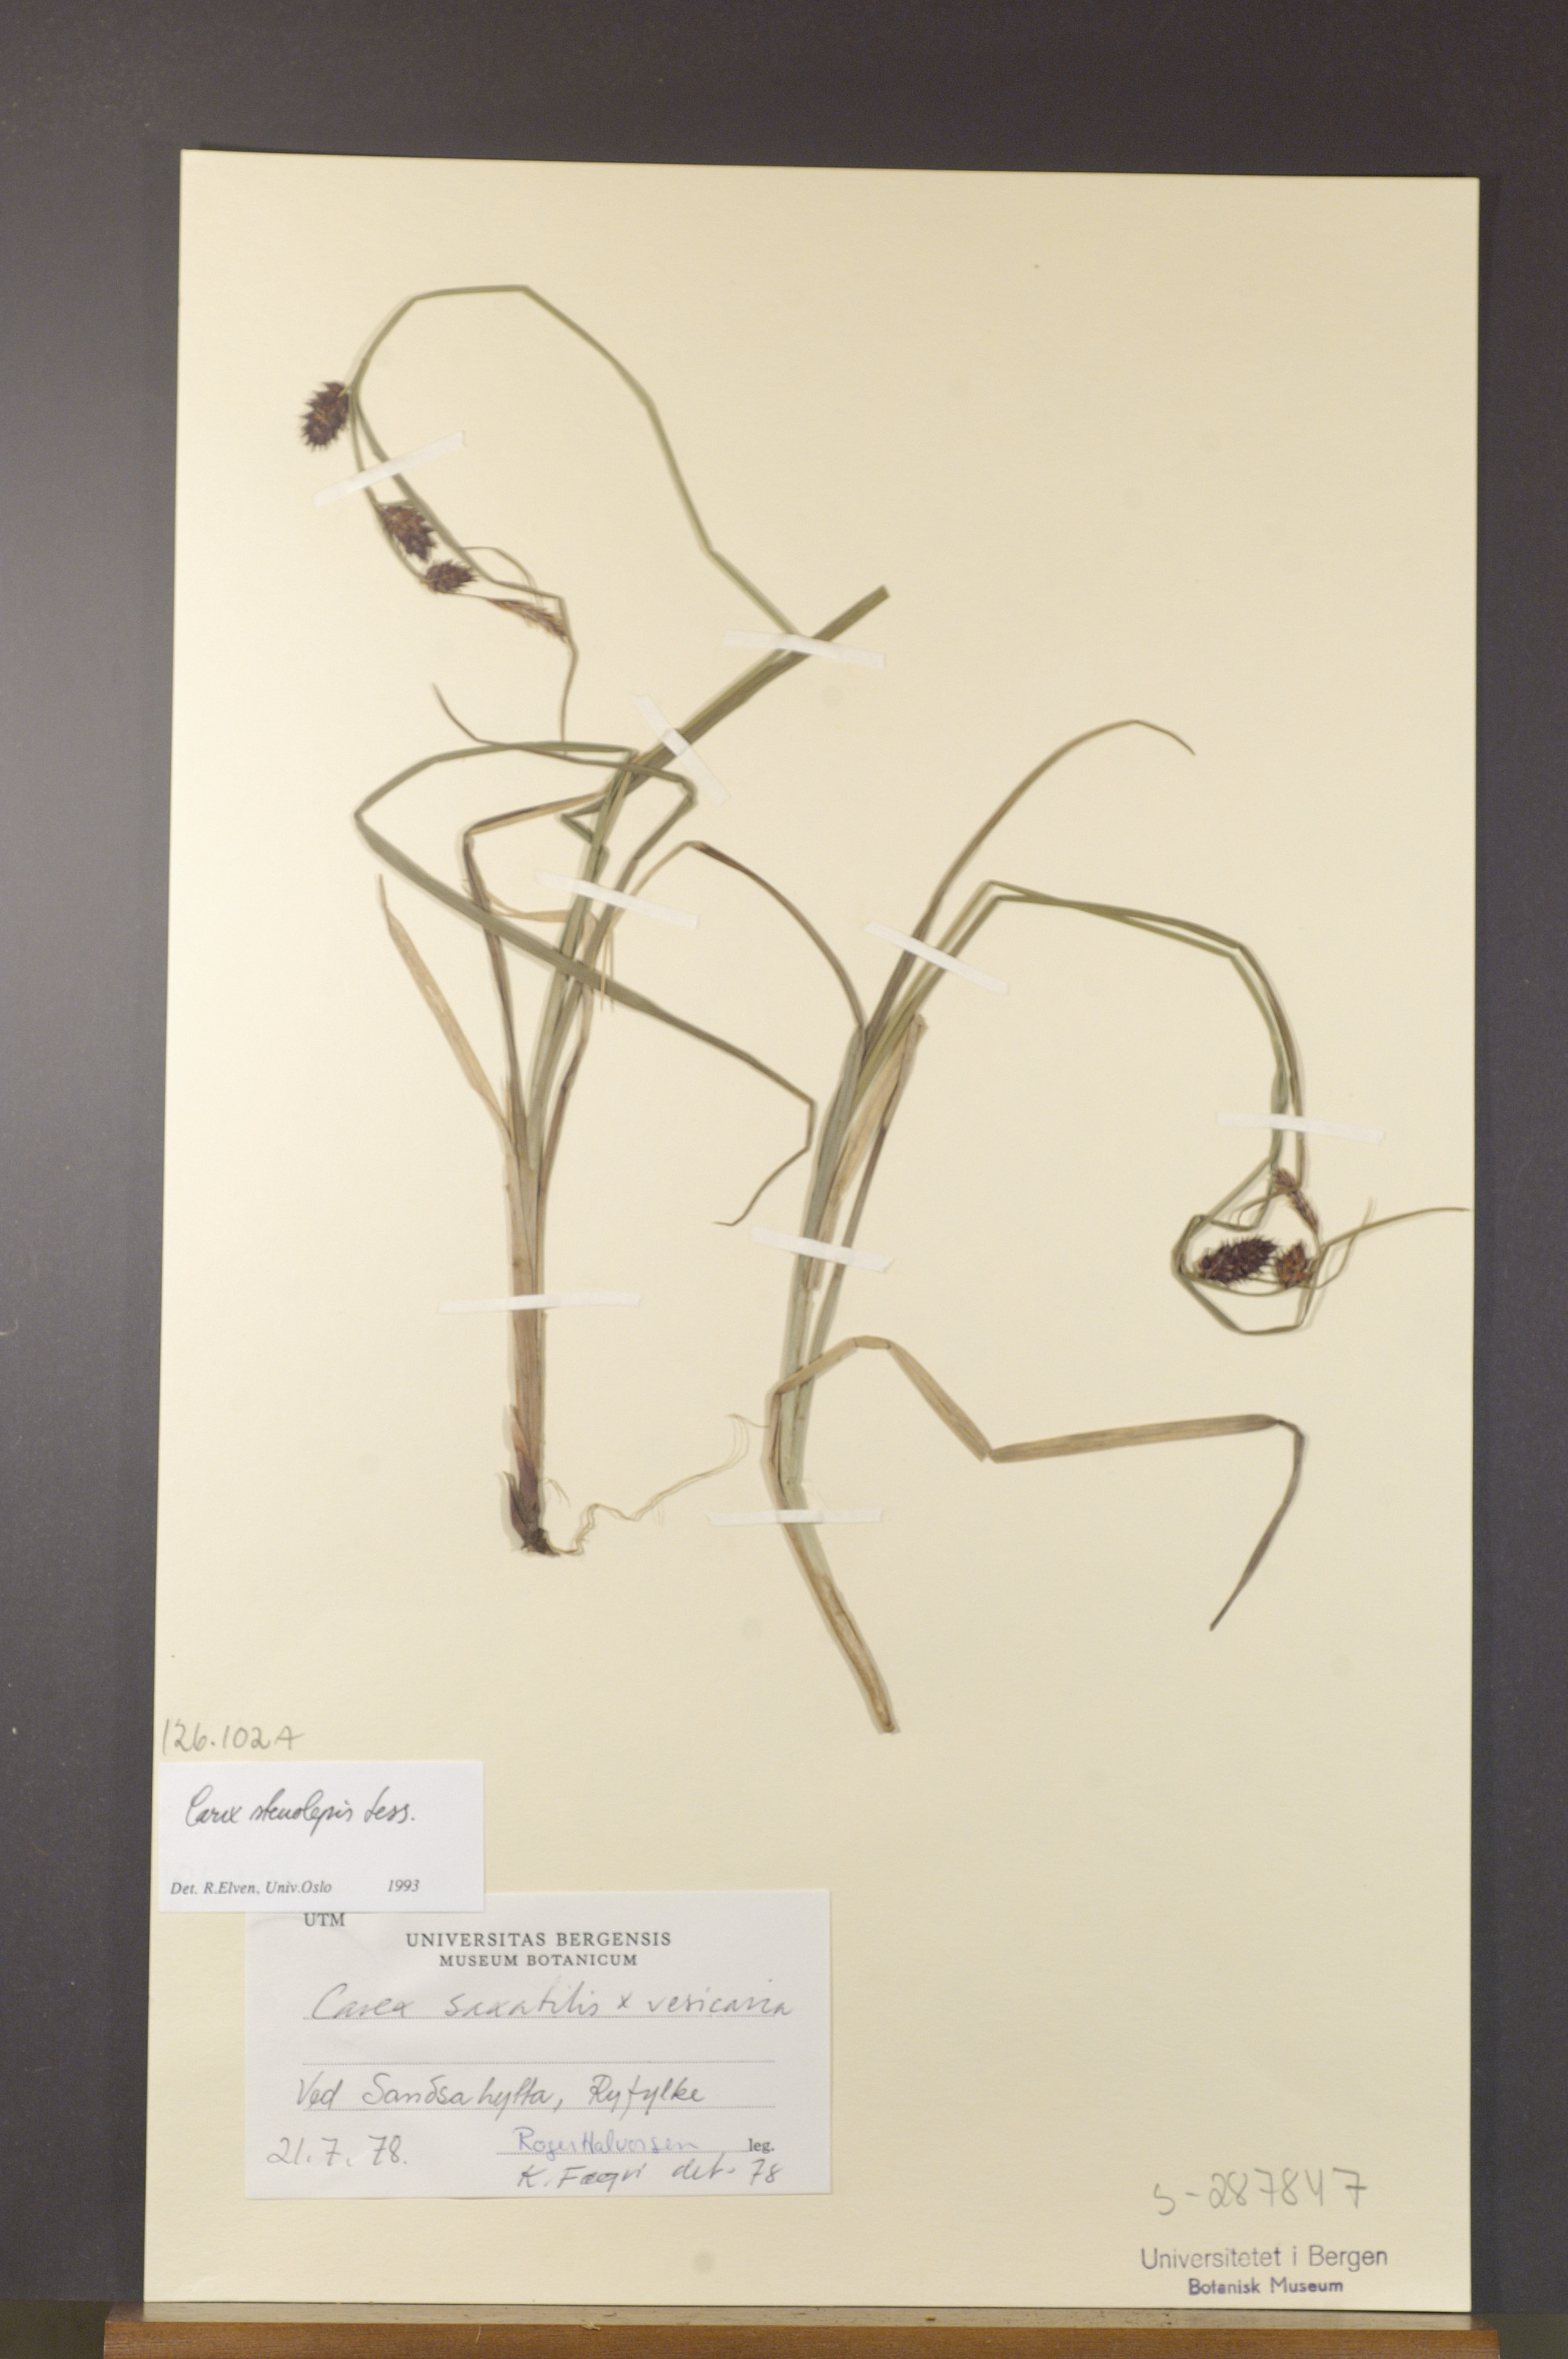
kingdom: Plantae
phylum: Tracheophyta
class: Liliopsida
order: Poales
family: Cyperaceae
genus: Carex
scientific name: Carex grahamii
